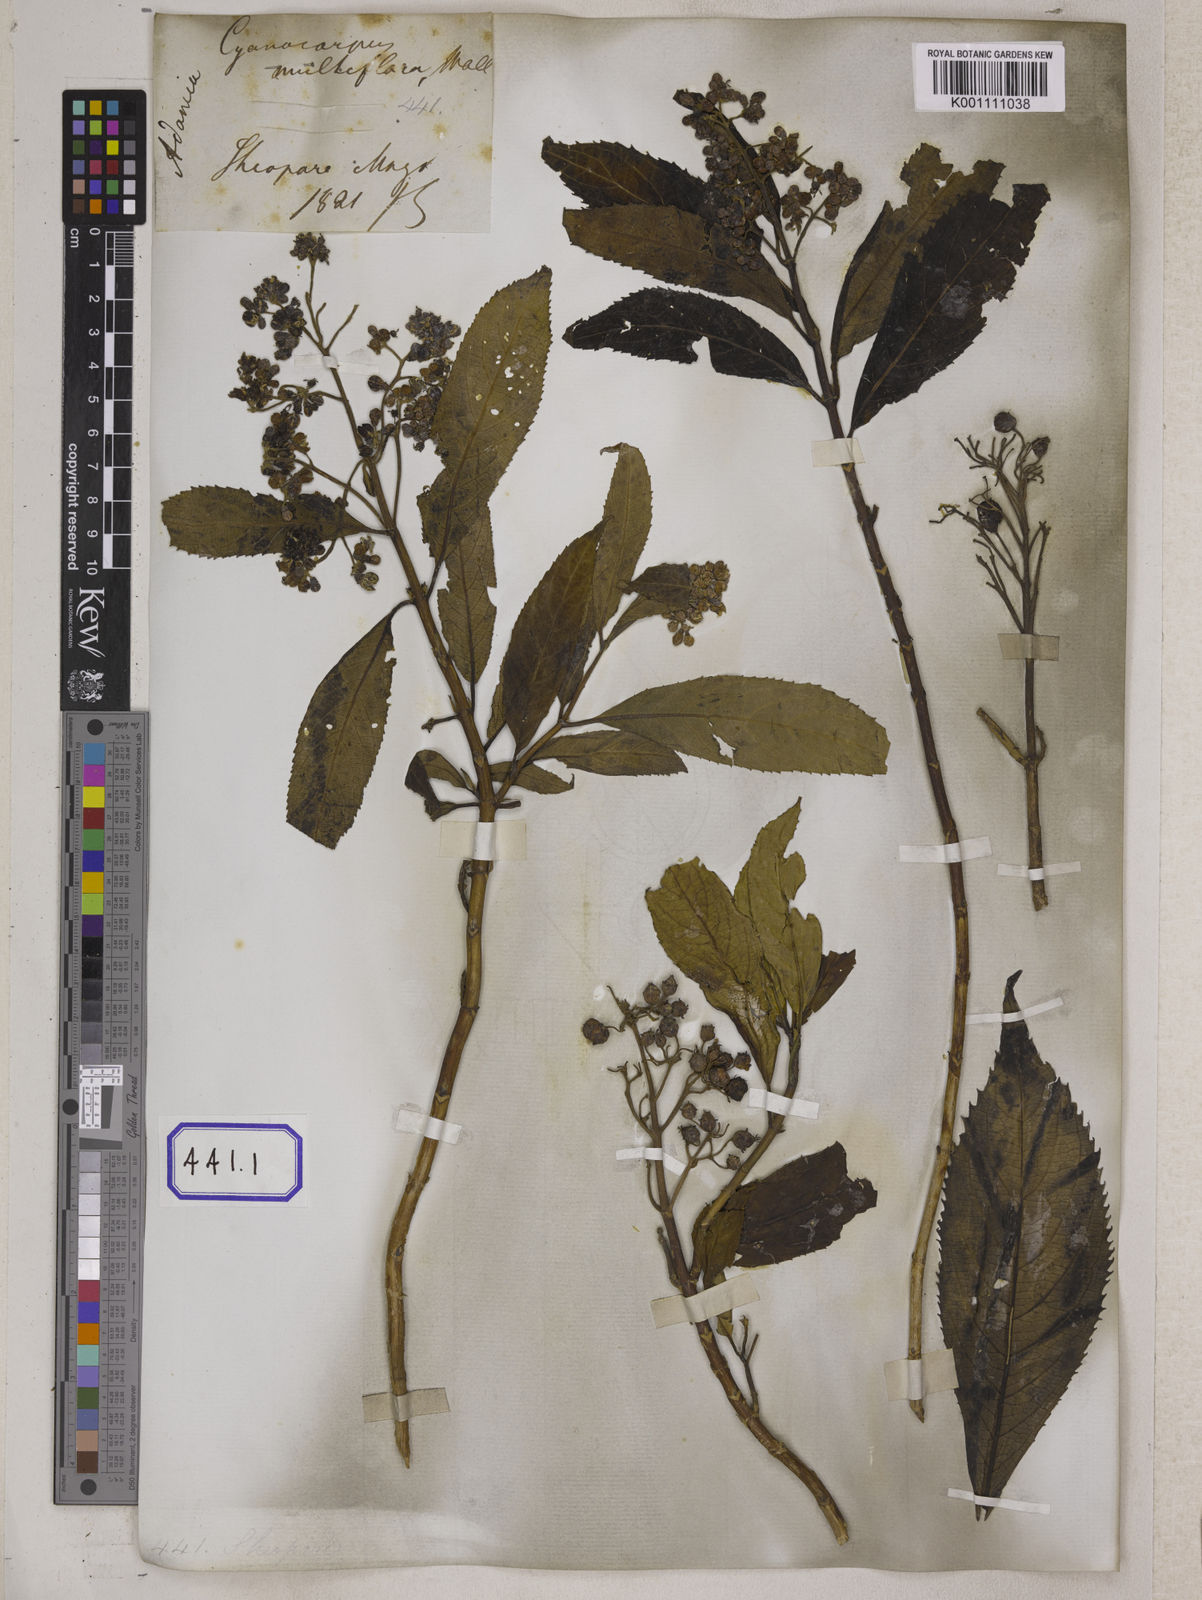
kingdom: Plantae
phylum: Tracheophyta
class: Magnoliopsida
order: Cornales
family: Hydrangeaceae
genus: Hydrangea
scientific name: Hydrangea febrifuga
